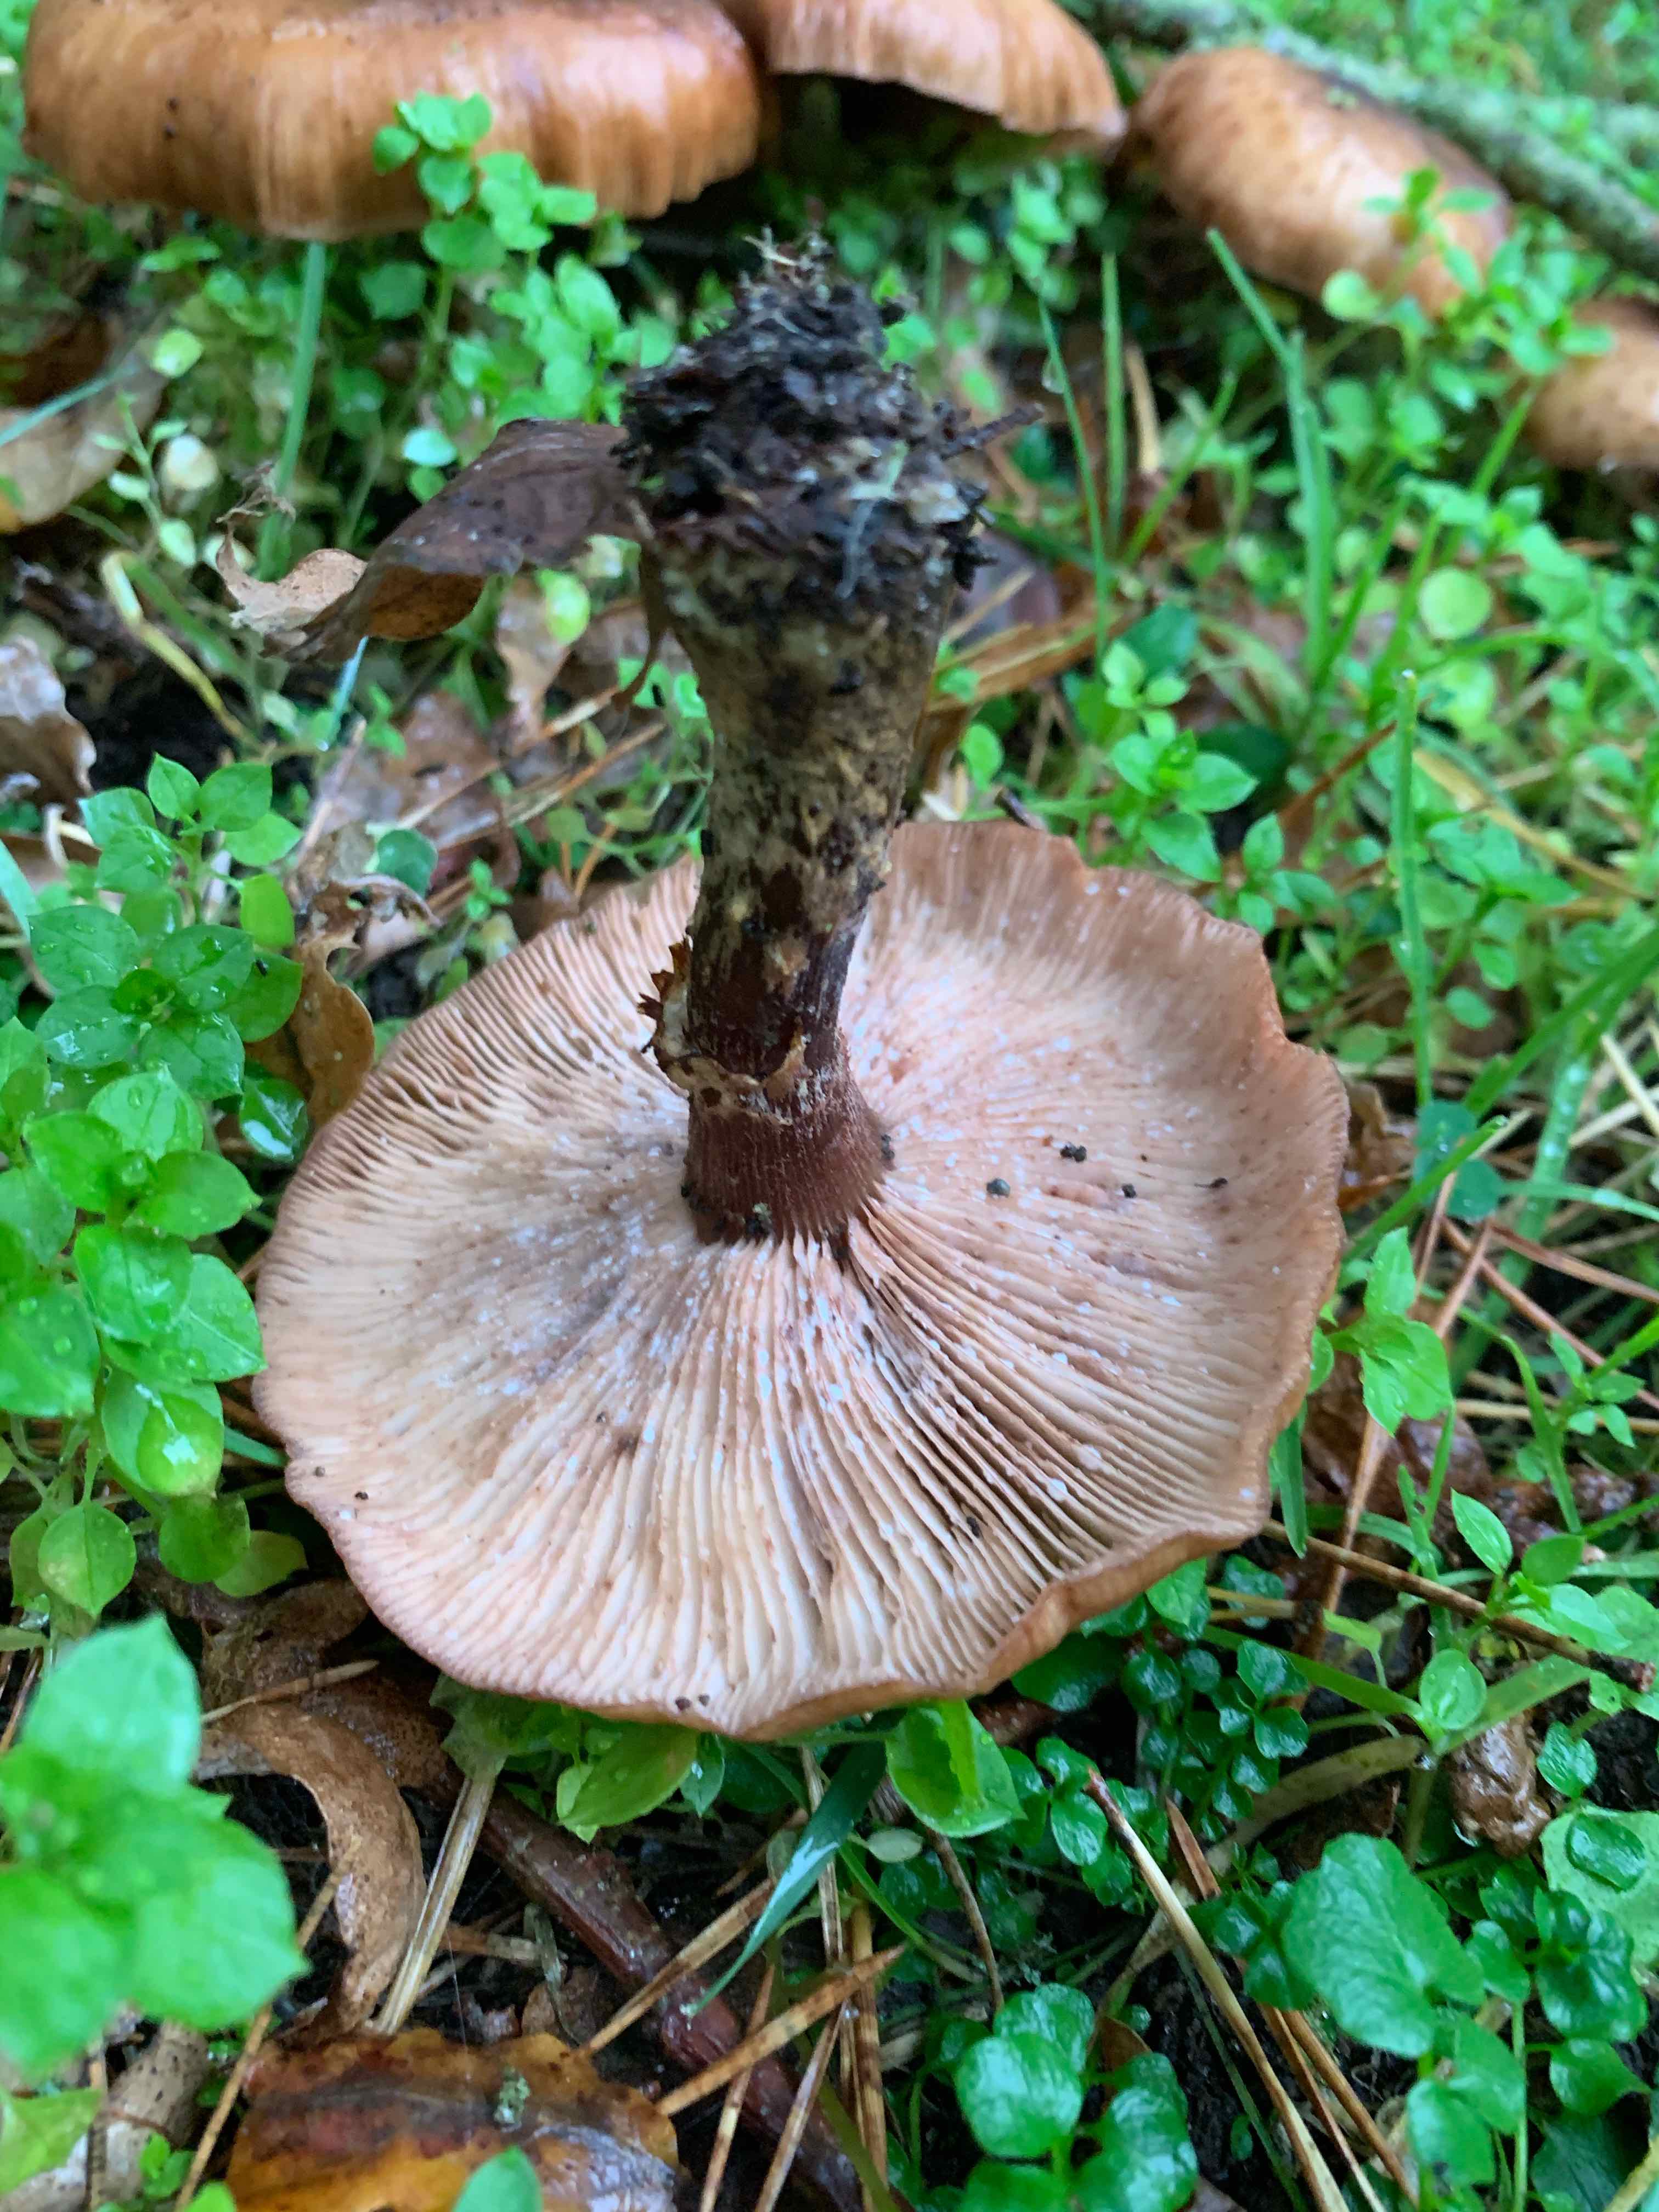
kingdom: Fungi
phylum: Basidiomycota
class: Agaricomycetes
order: Agaricales
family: Physalacriaceae
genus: Armillaria
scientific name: Armillaria
